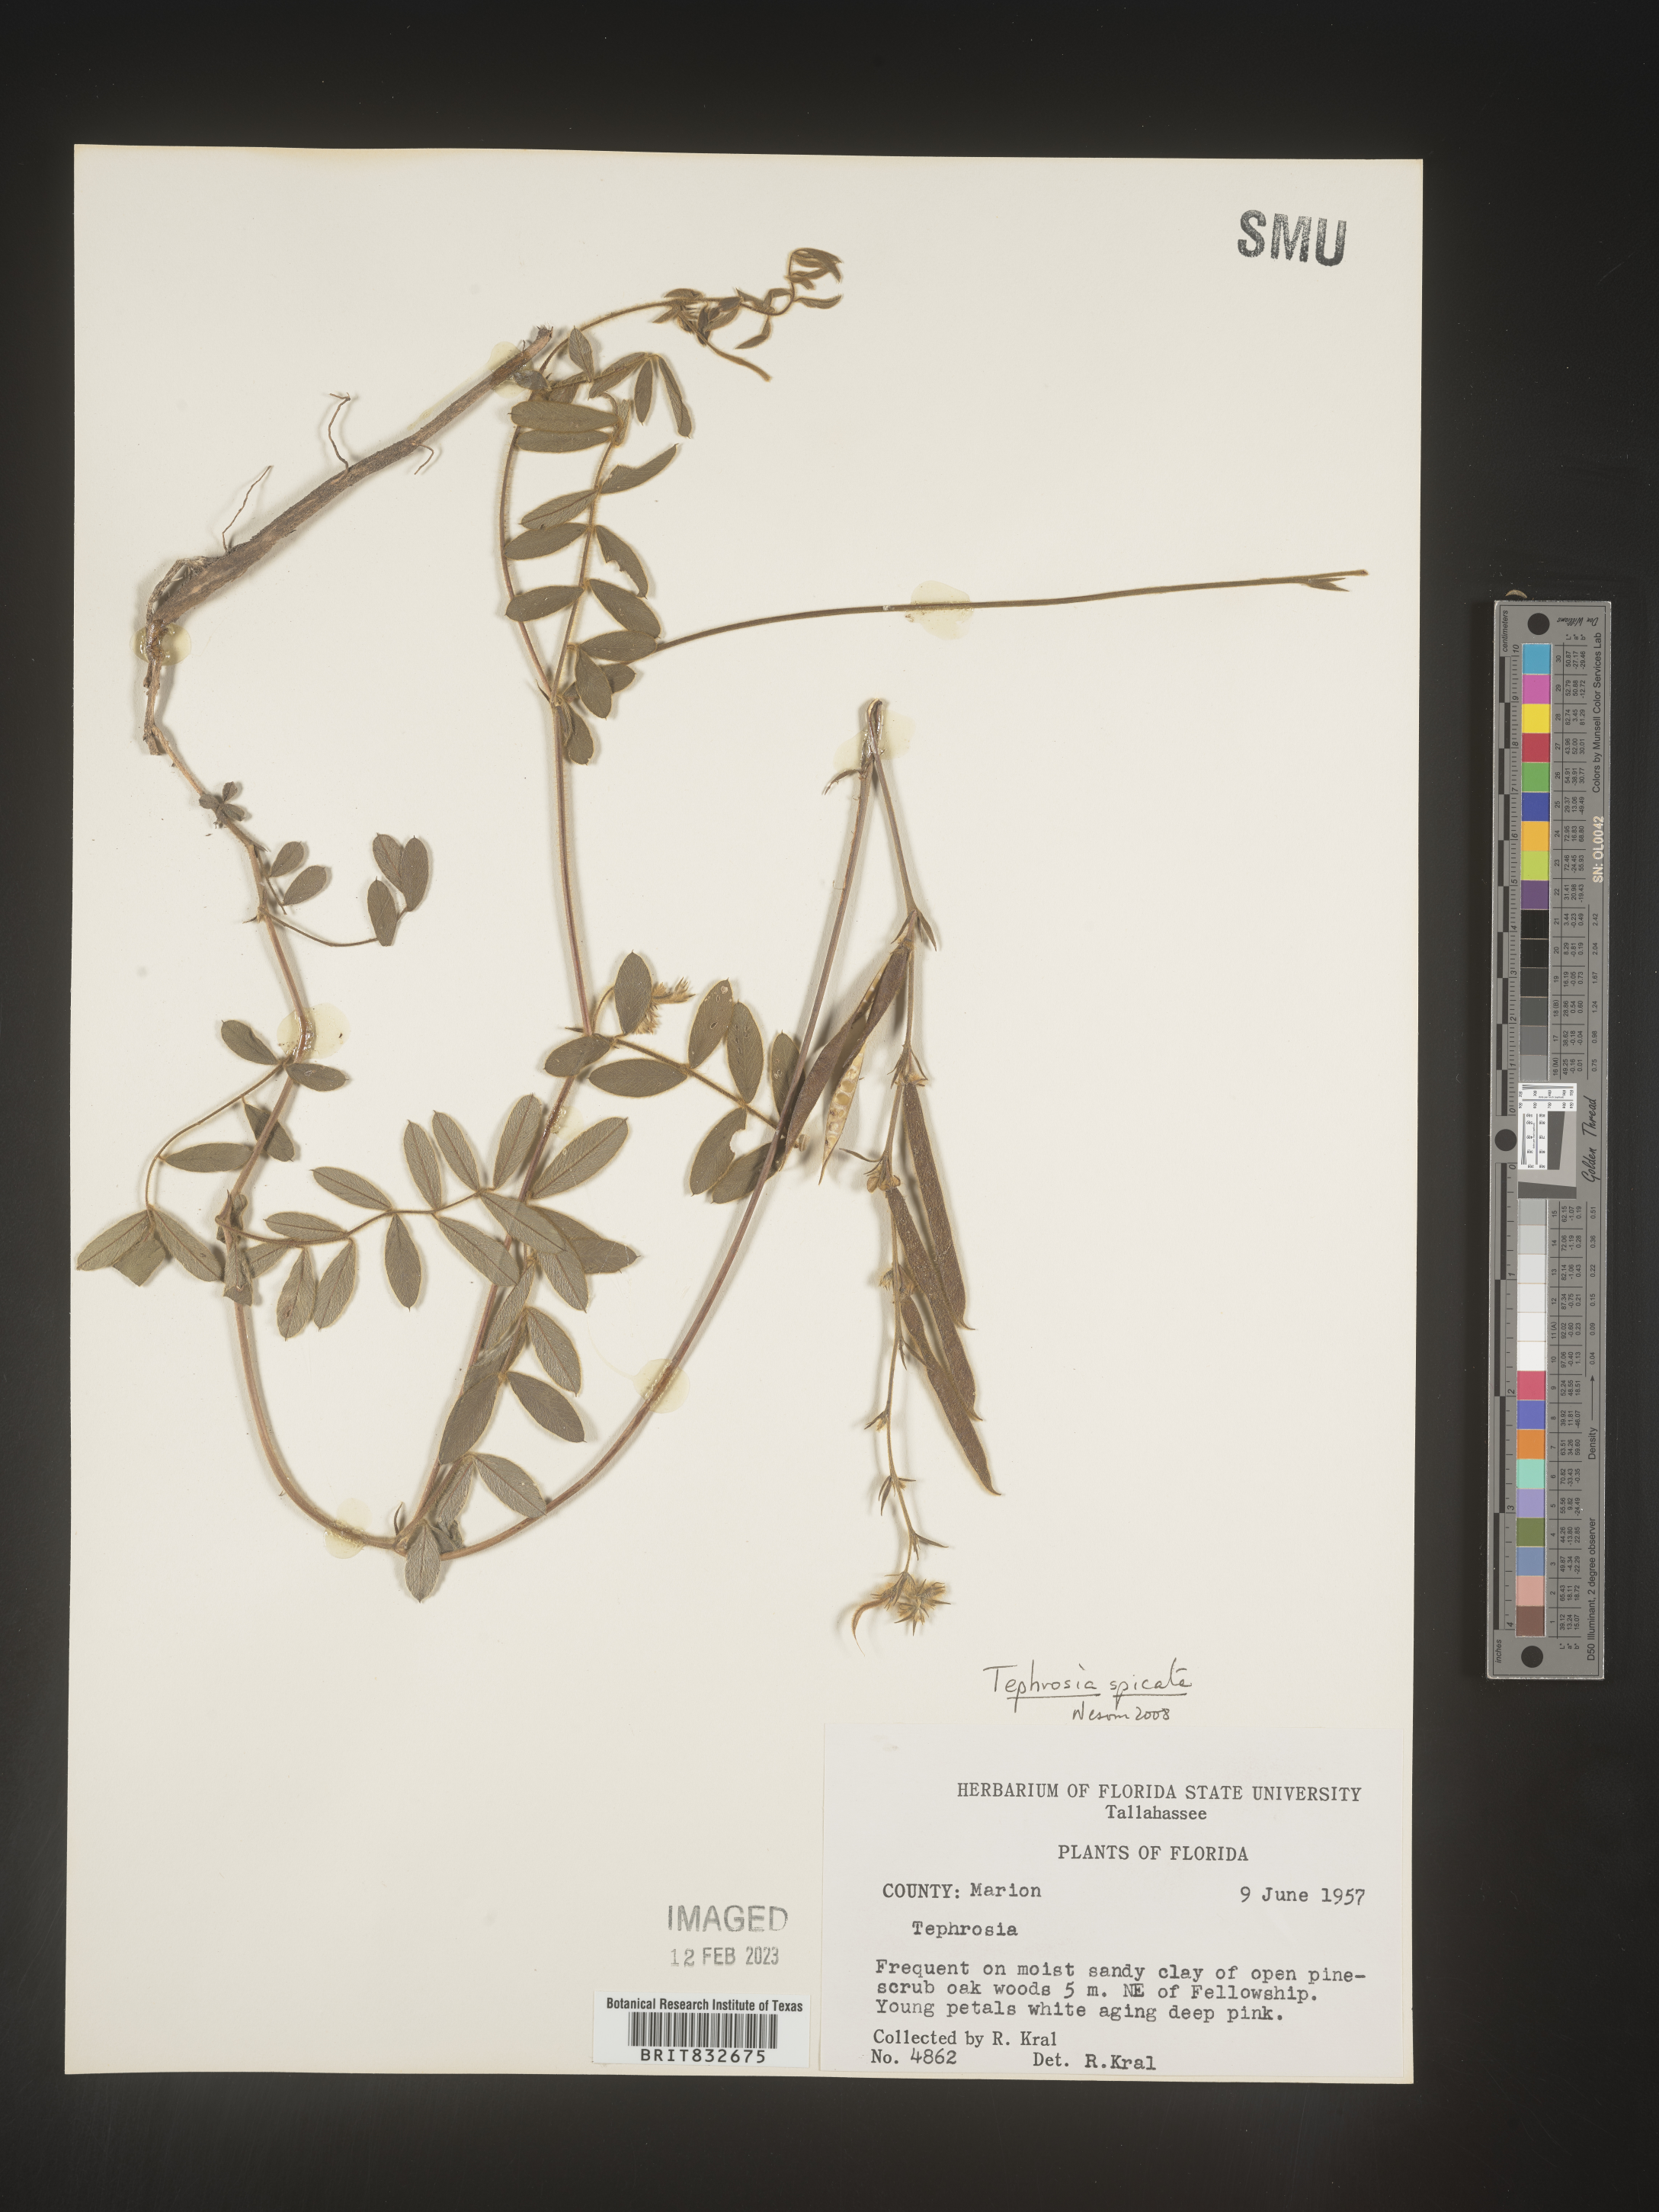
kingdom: Plantae
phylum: Tracheophyta
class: Magnoliopsida
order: Fabales
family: Fabaceae
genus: Tephrosia
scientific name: Tephrosia spicata
